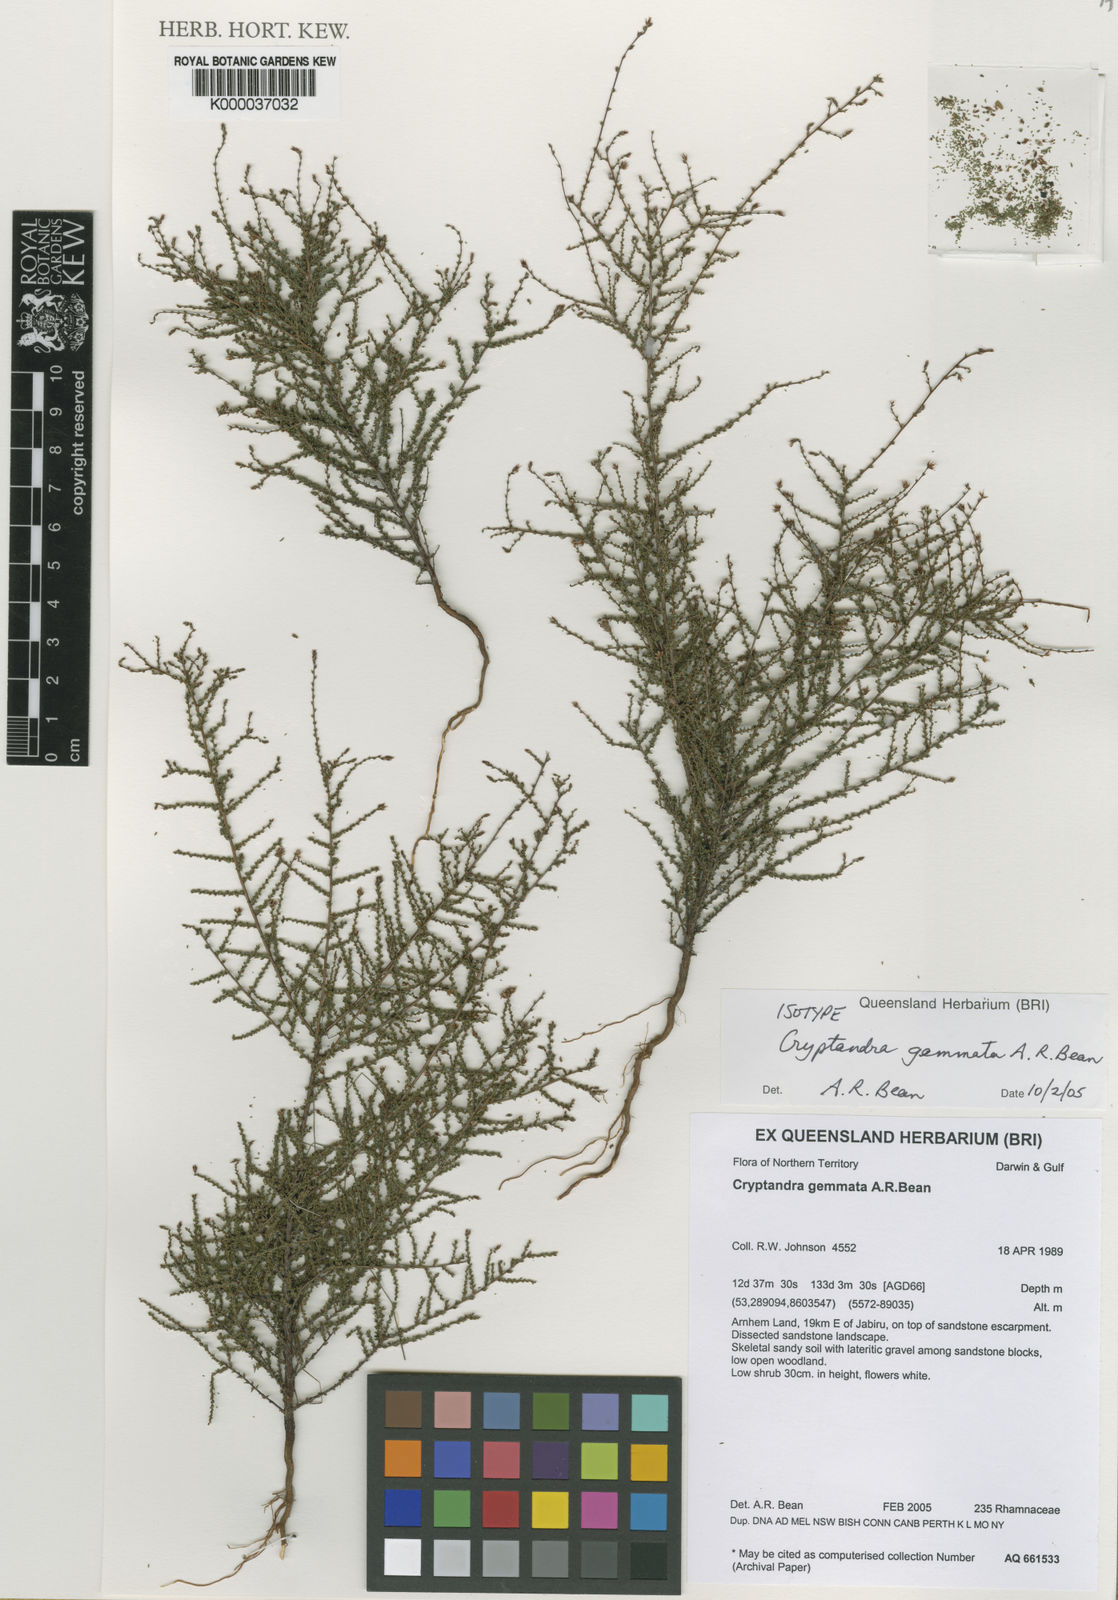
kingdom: Plantae
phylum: Tracheophyta
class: Magnoliopsida
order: Rosales
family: Rhamnaceae
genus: Cryptandra
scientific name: Cryptandra gemmata
